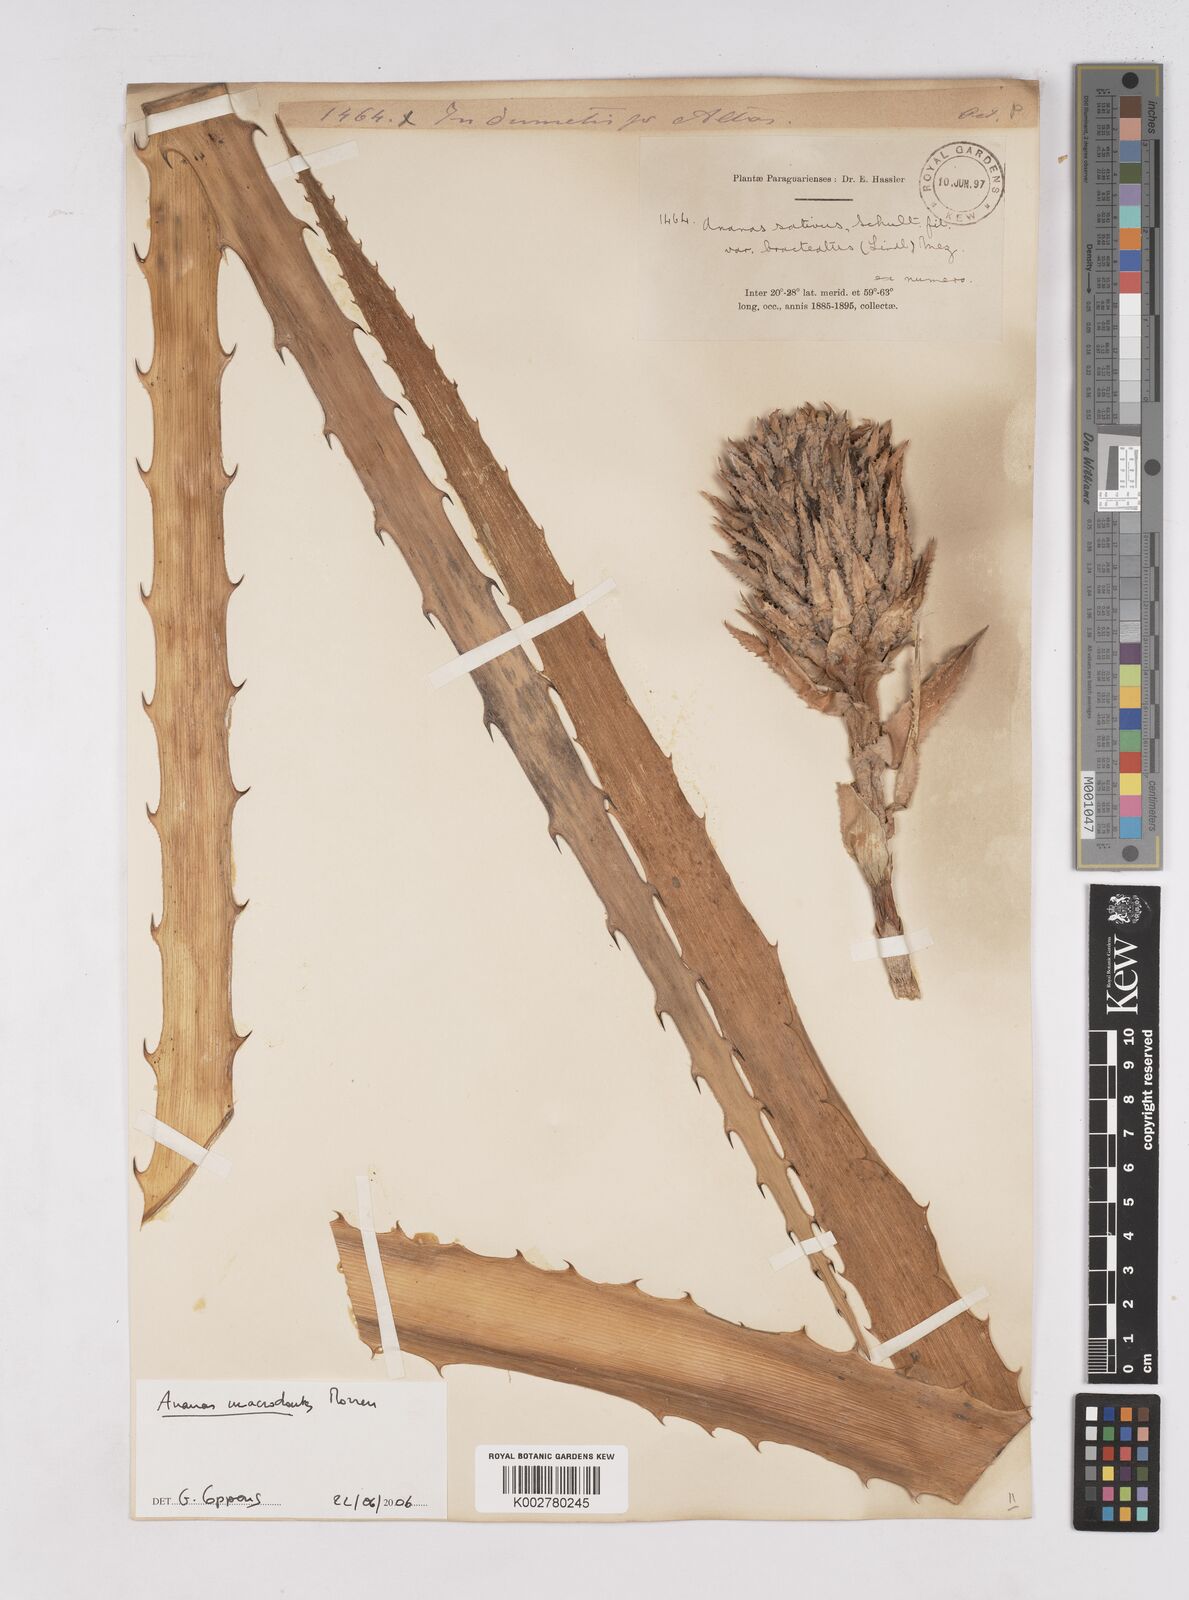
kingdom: Plantae
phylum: Tracheophyta
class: Liliopsida
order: Poales
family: Bromeliaceae
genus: Ananas
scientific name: Ananas comosus
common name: Pineapple
